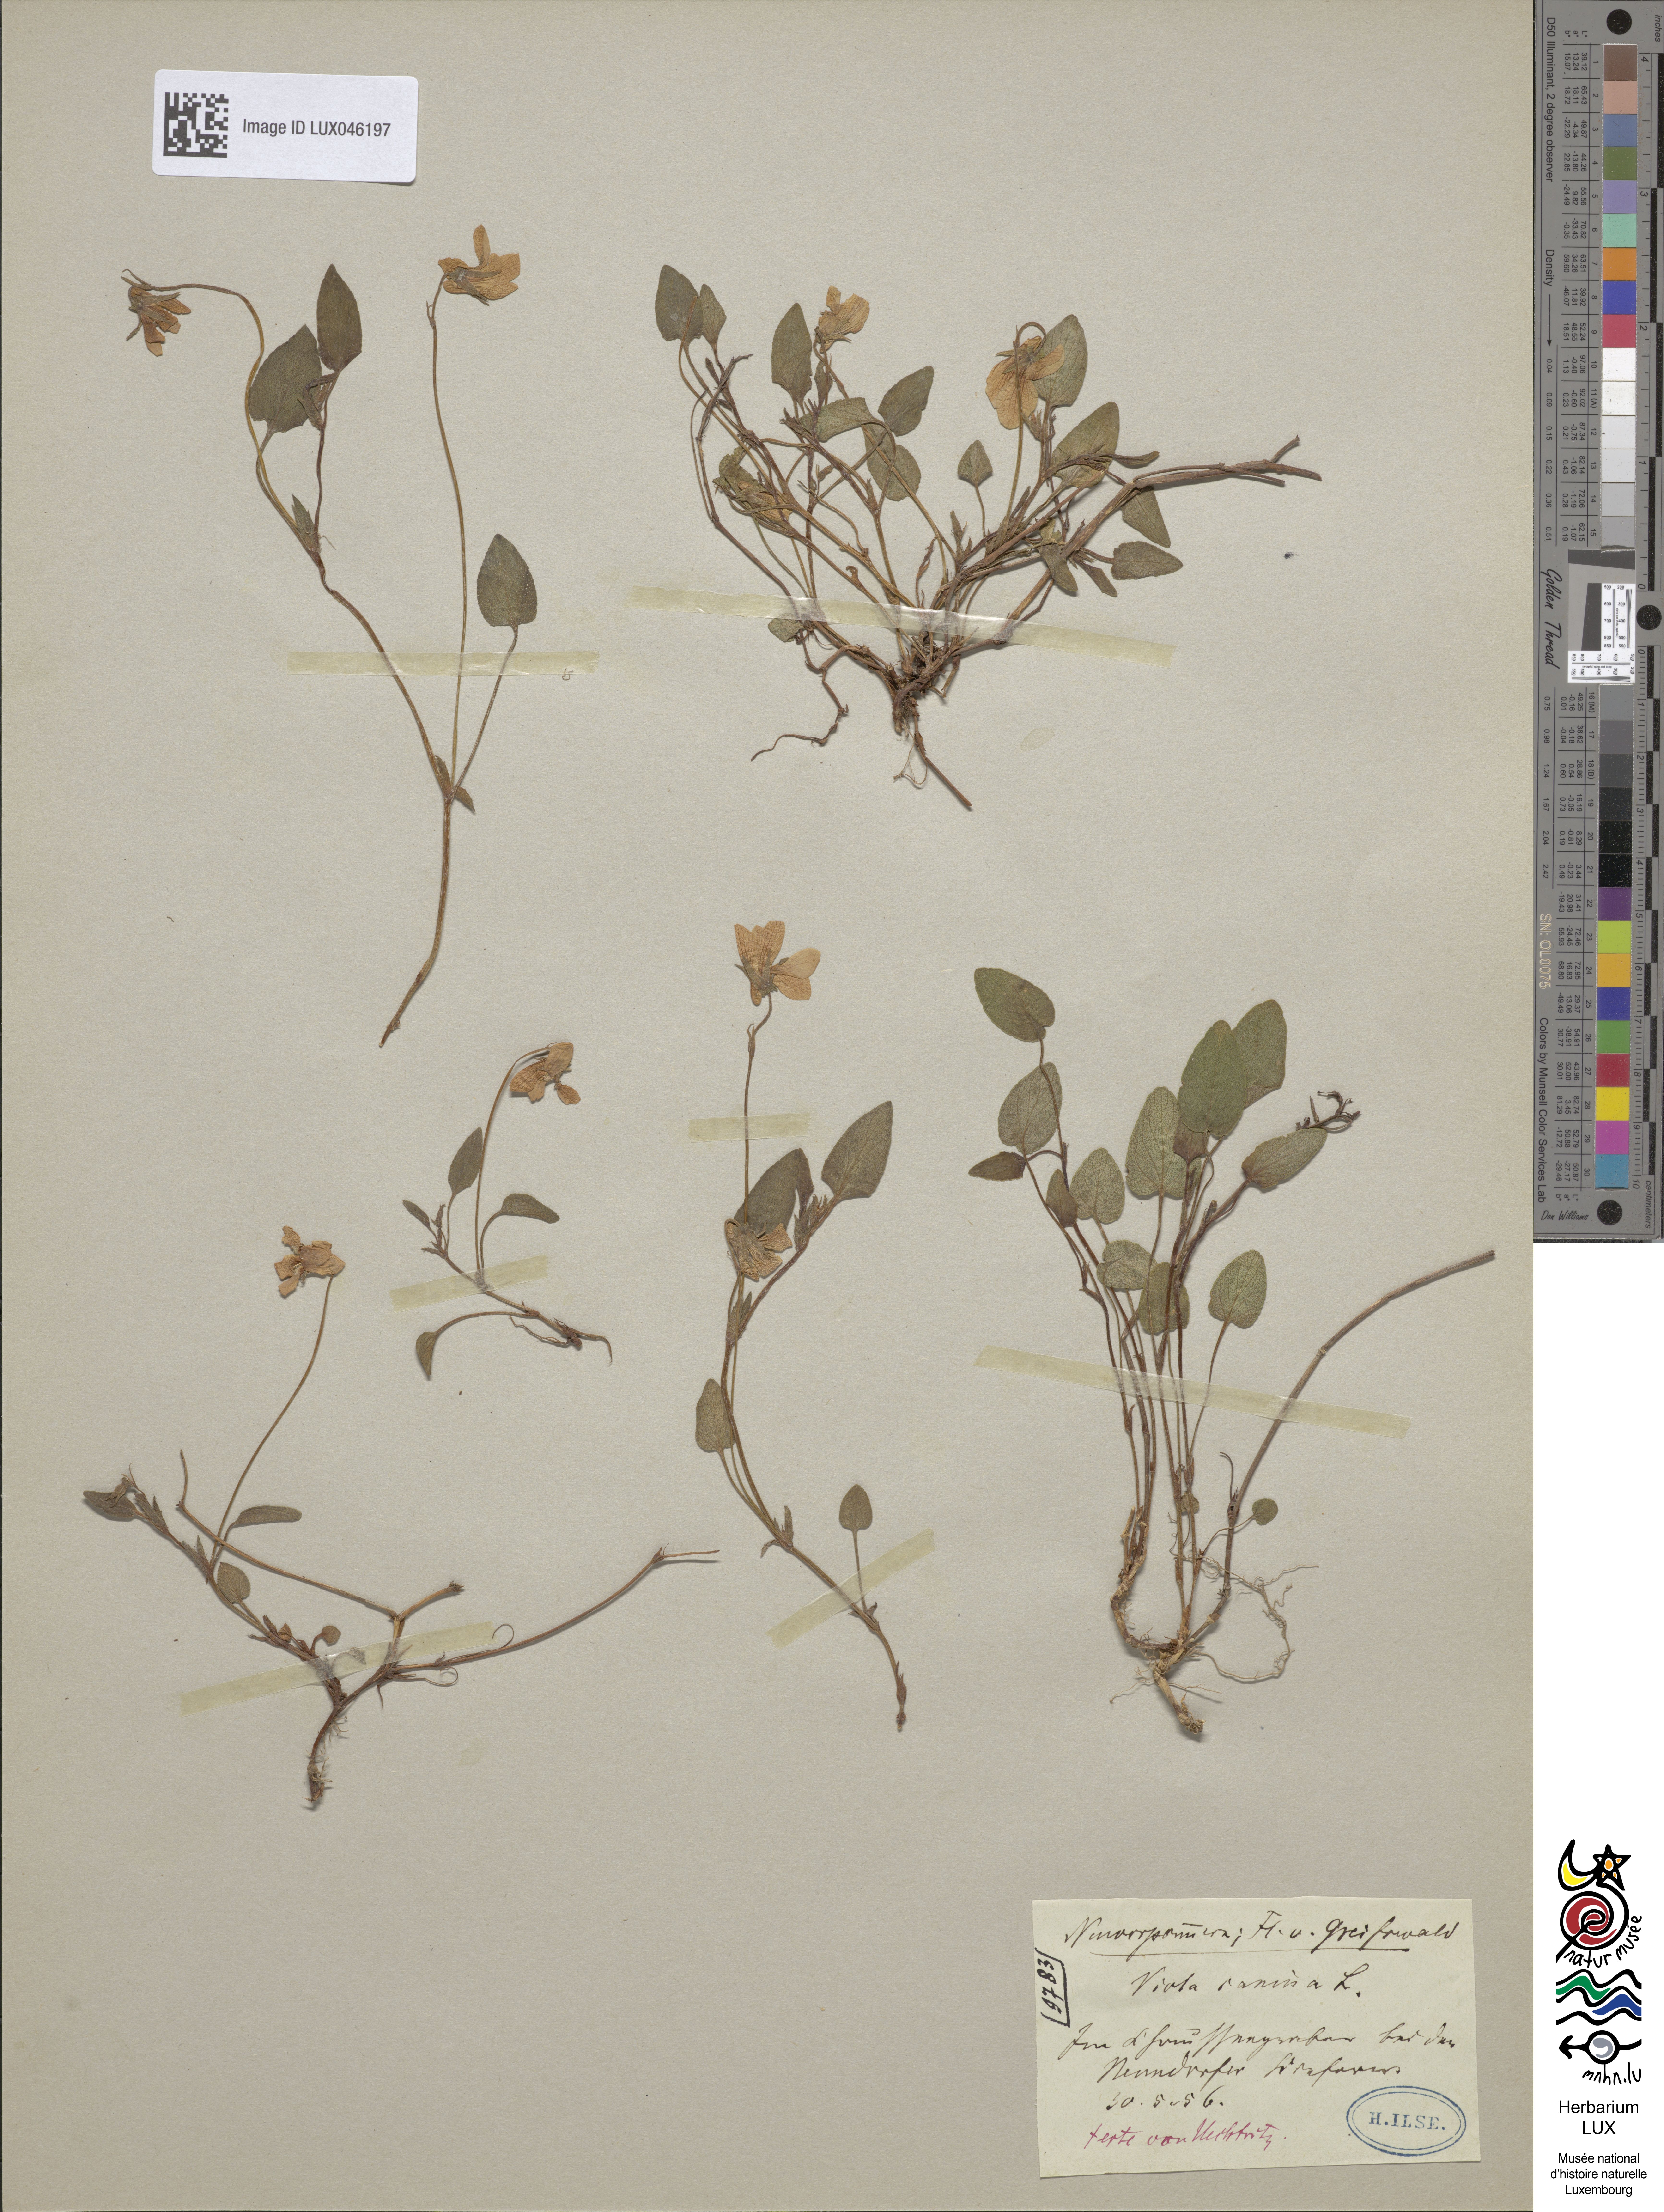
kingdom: Plantae
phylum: Tracheophyta
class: Magnoliopsida
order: Malpighiales
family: Violaceae
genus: Viola
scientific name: Viola canina
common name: Heath dog-violet
